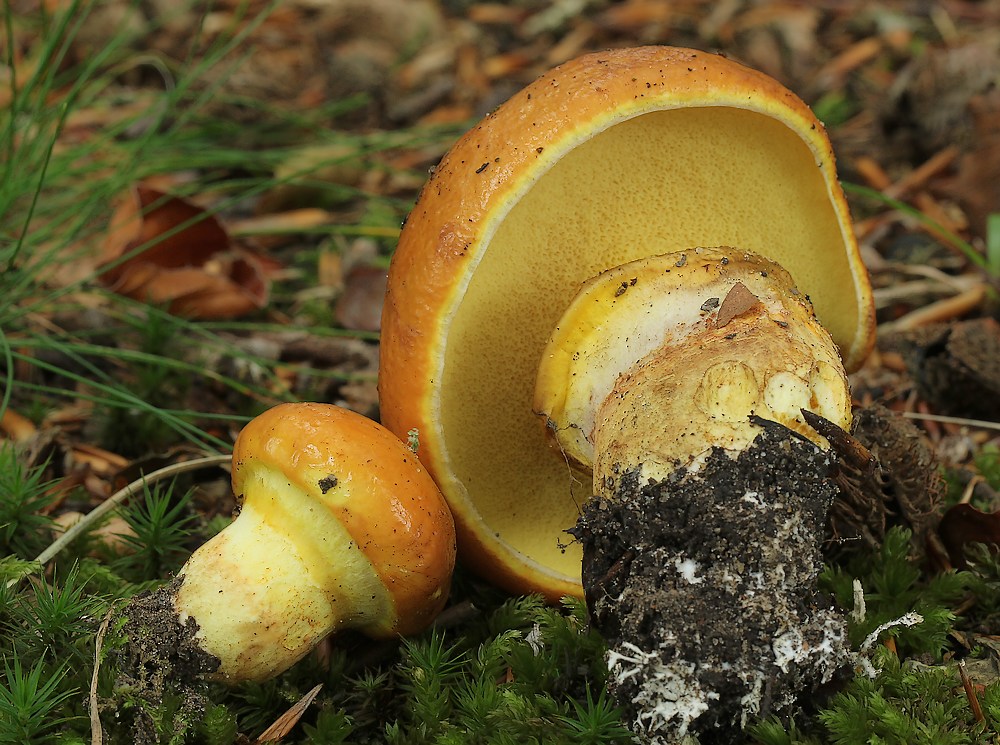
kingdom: Fungi
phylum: Basidiomycota
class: Agaricomycetes
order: Boletales
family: Suillaceae
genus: Suillus
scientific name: Suillus grevillei
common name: lærke-slimrørhat
